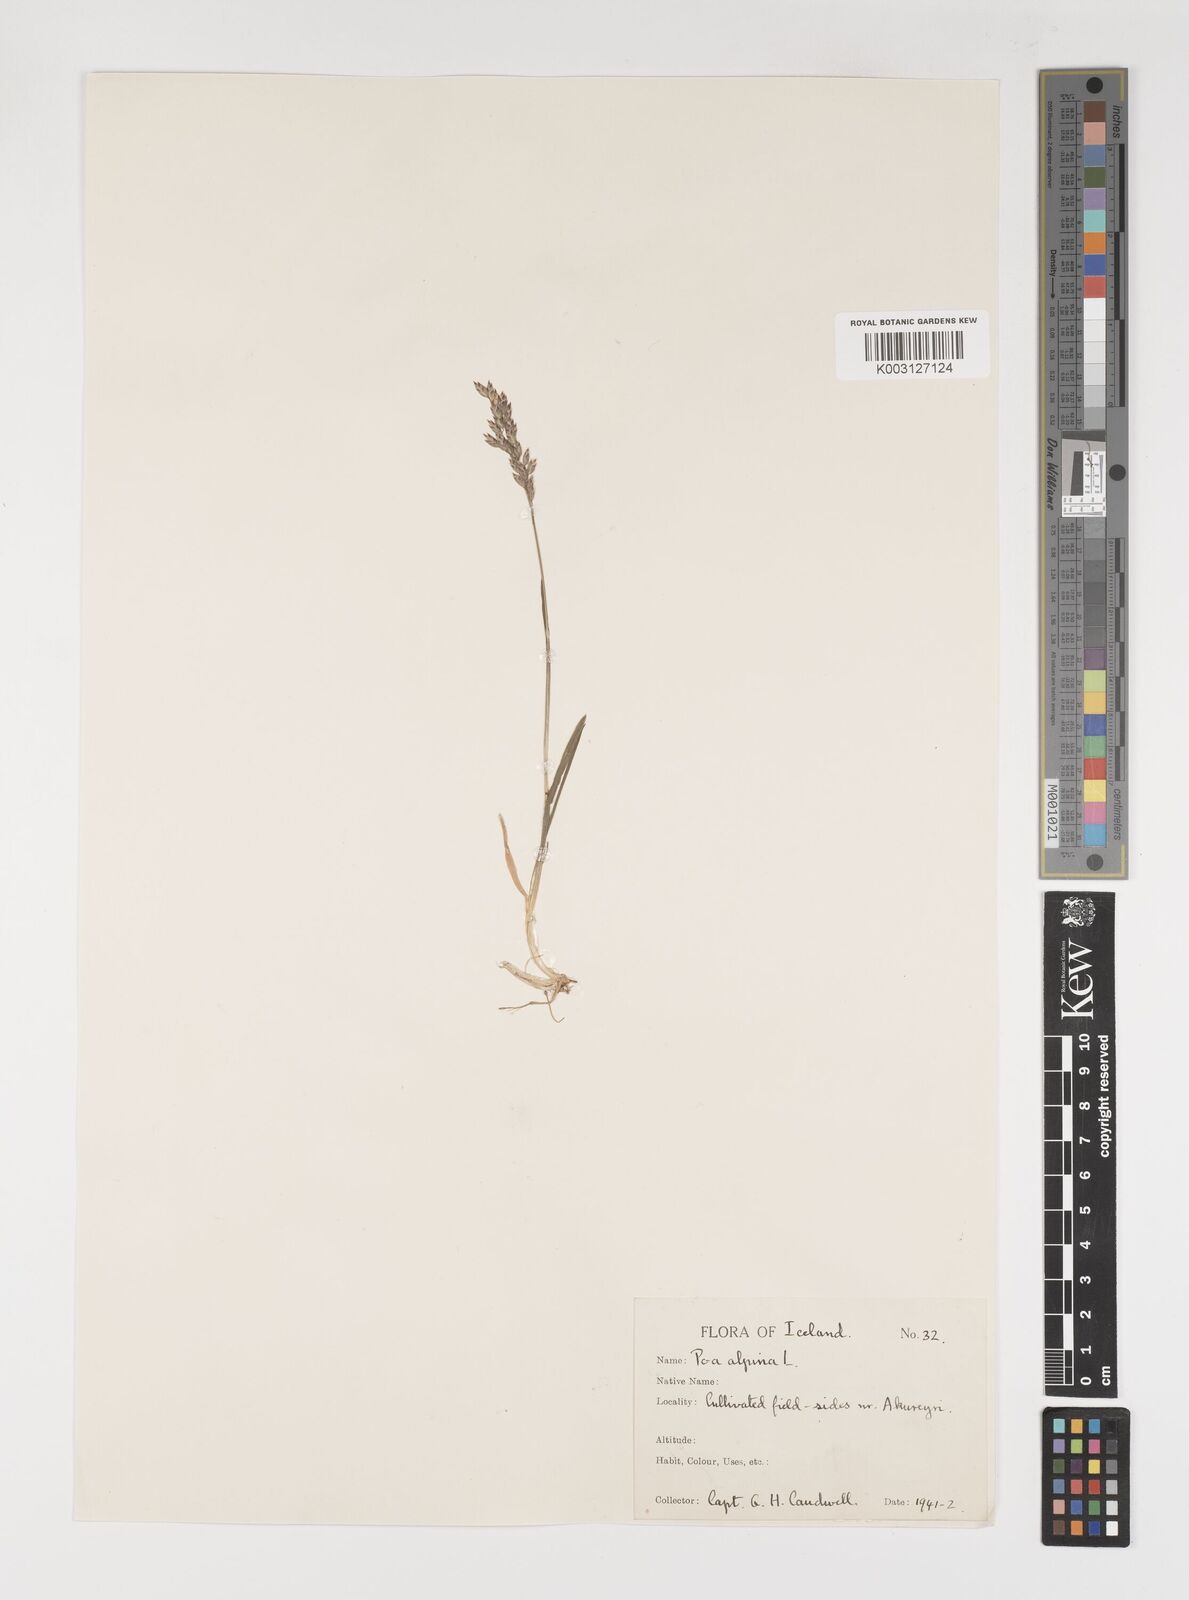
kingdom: Plantae
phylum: Tracheophyta
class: Liliopsida
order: Poales
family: Poaceae
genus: Poa
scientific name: Poa alpina
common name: Alpine bluegrass
